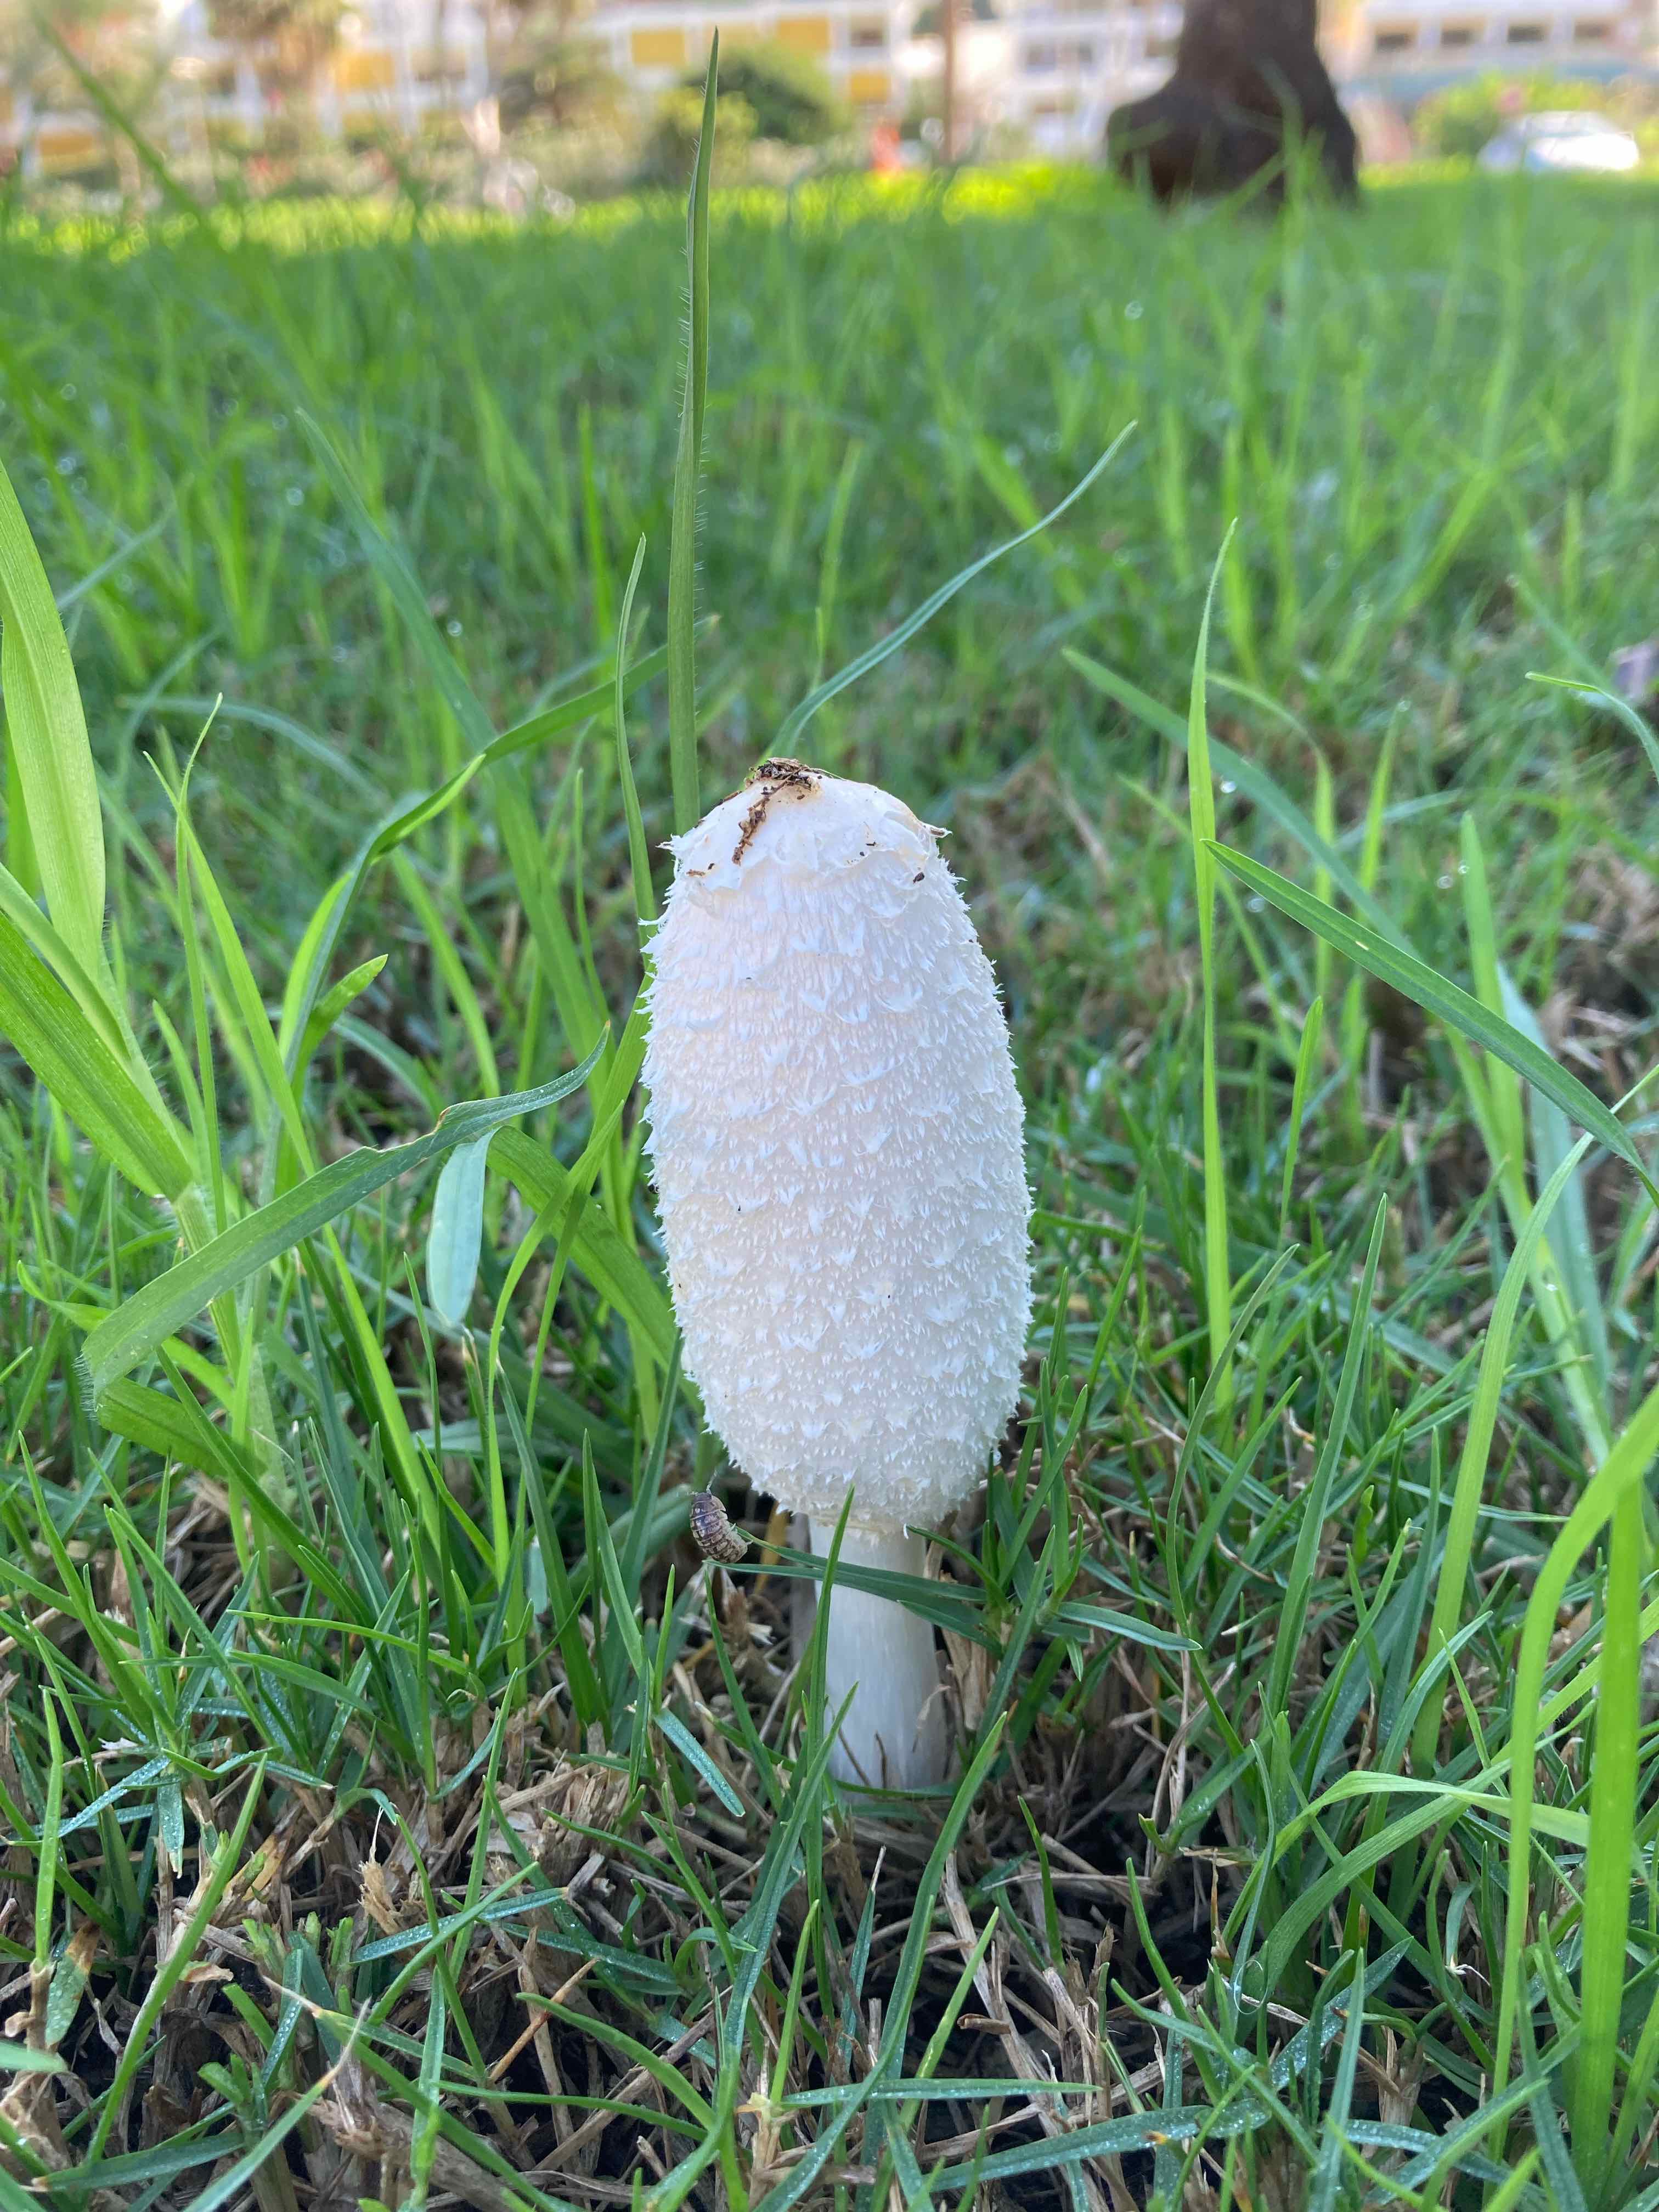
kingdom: Fungi
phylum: Basidiomycota
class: Agaricomycetes
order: Agaricales
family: Agaricaceae
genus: Coprinus
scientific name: Coprinus comatus
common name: stor parykhat
